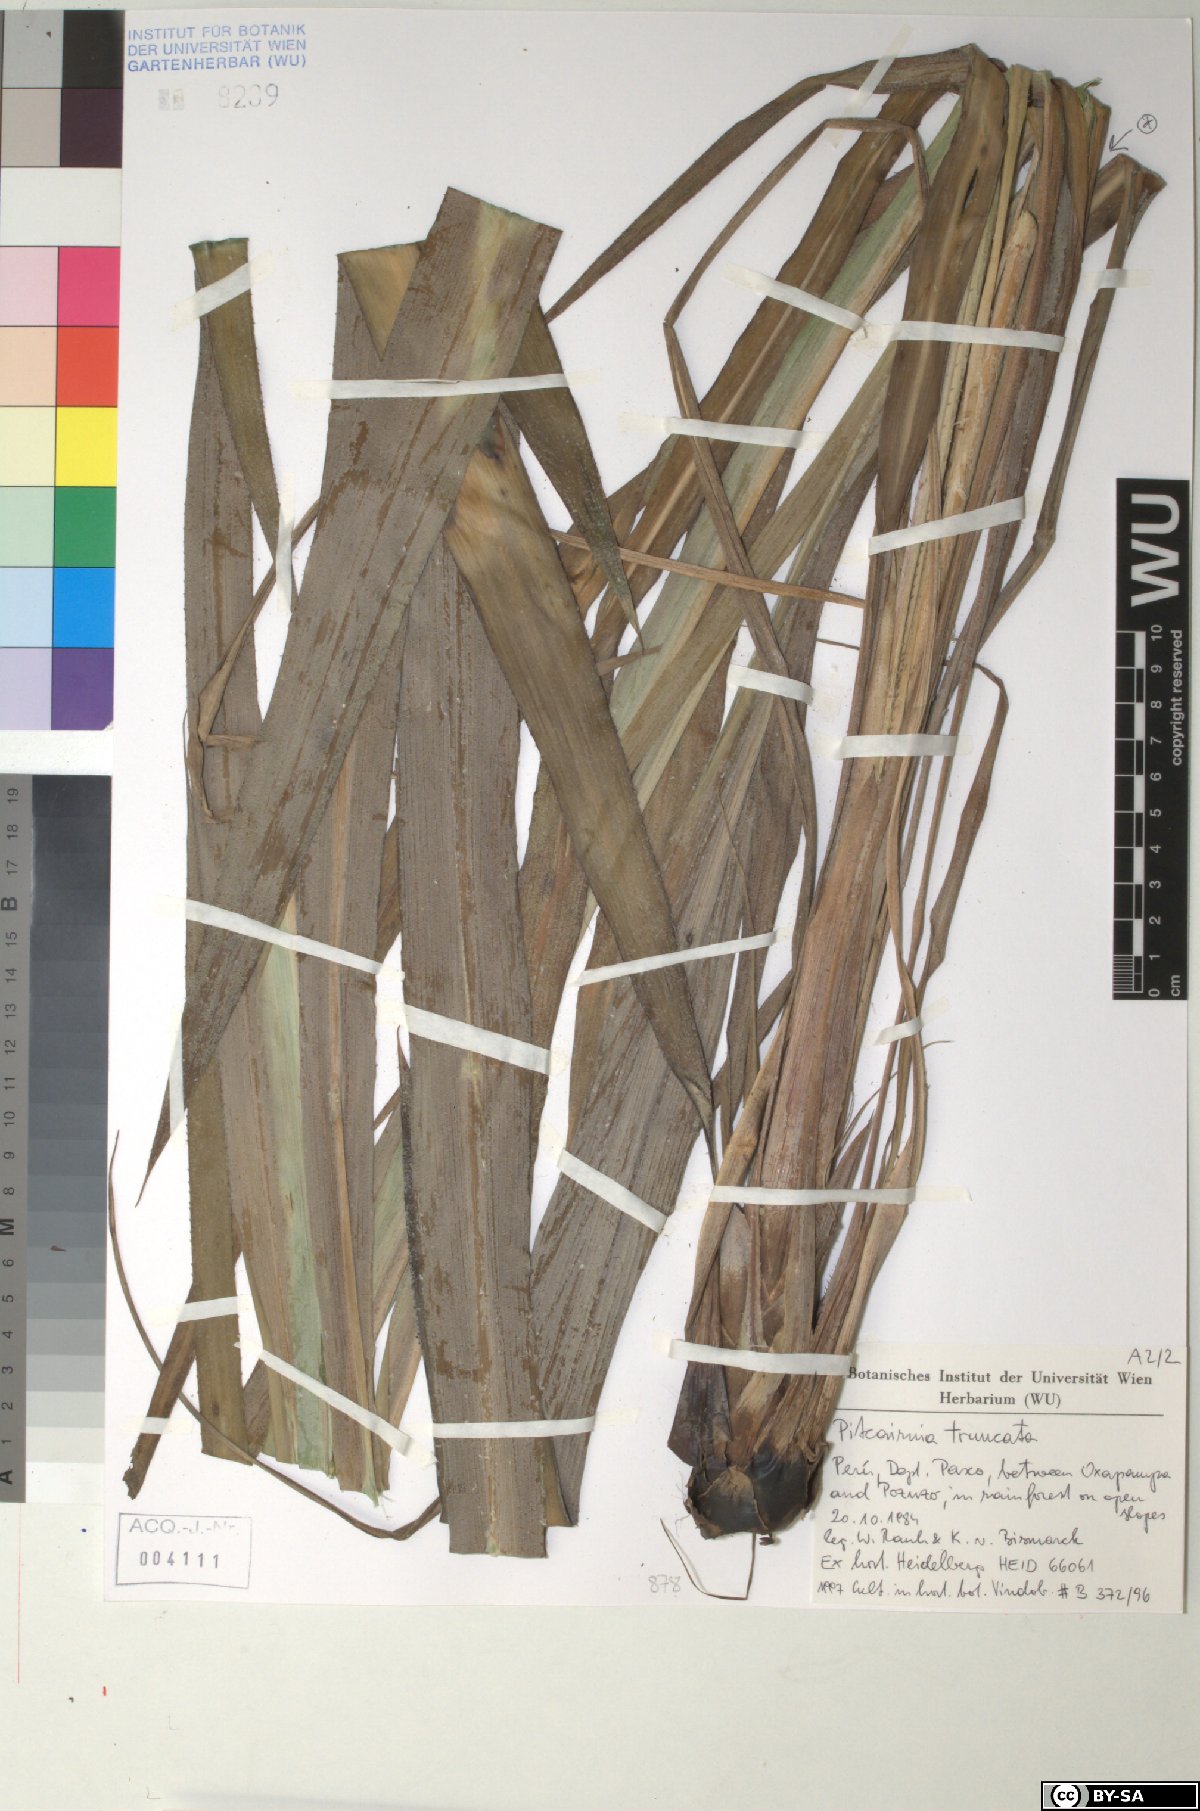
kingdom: Plantae
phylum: Tracheophyta
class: Liliopsida
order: Poales
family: Bromeliaceae
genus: Pitcairnia
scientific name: Pitcairnia truncata
